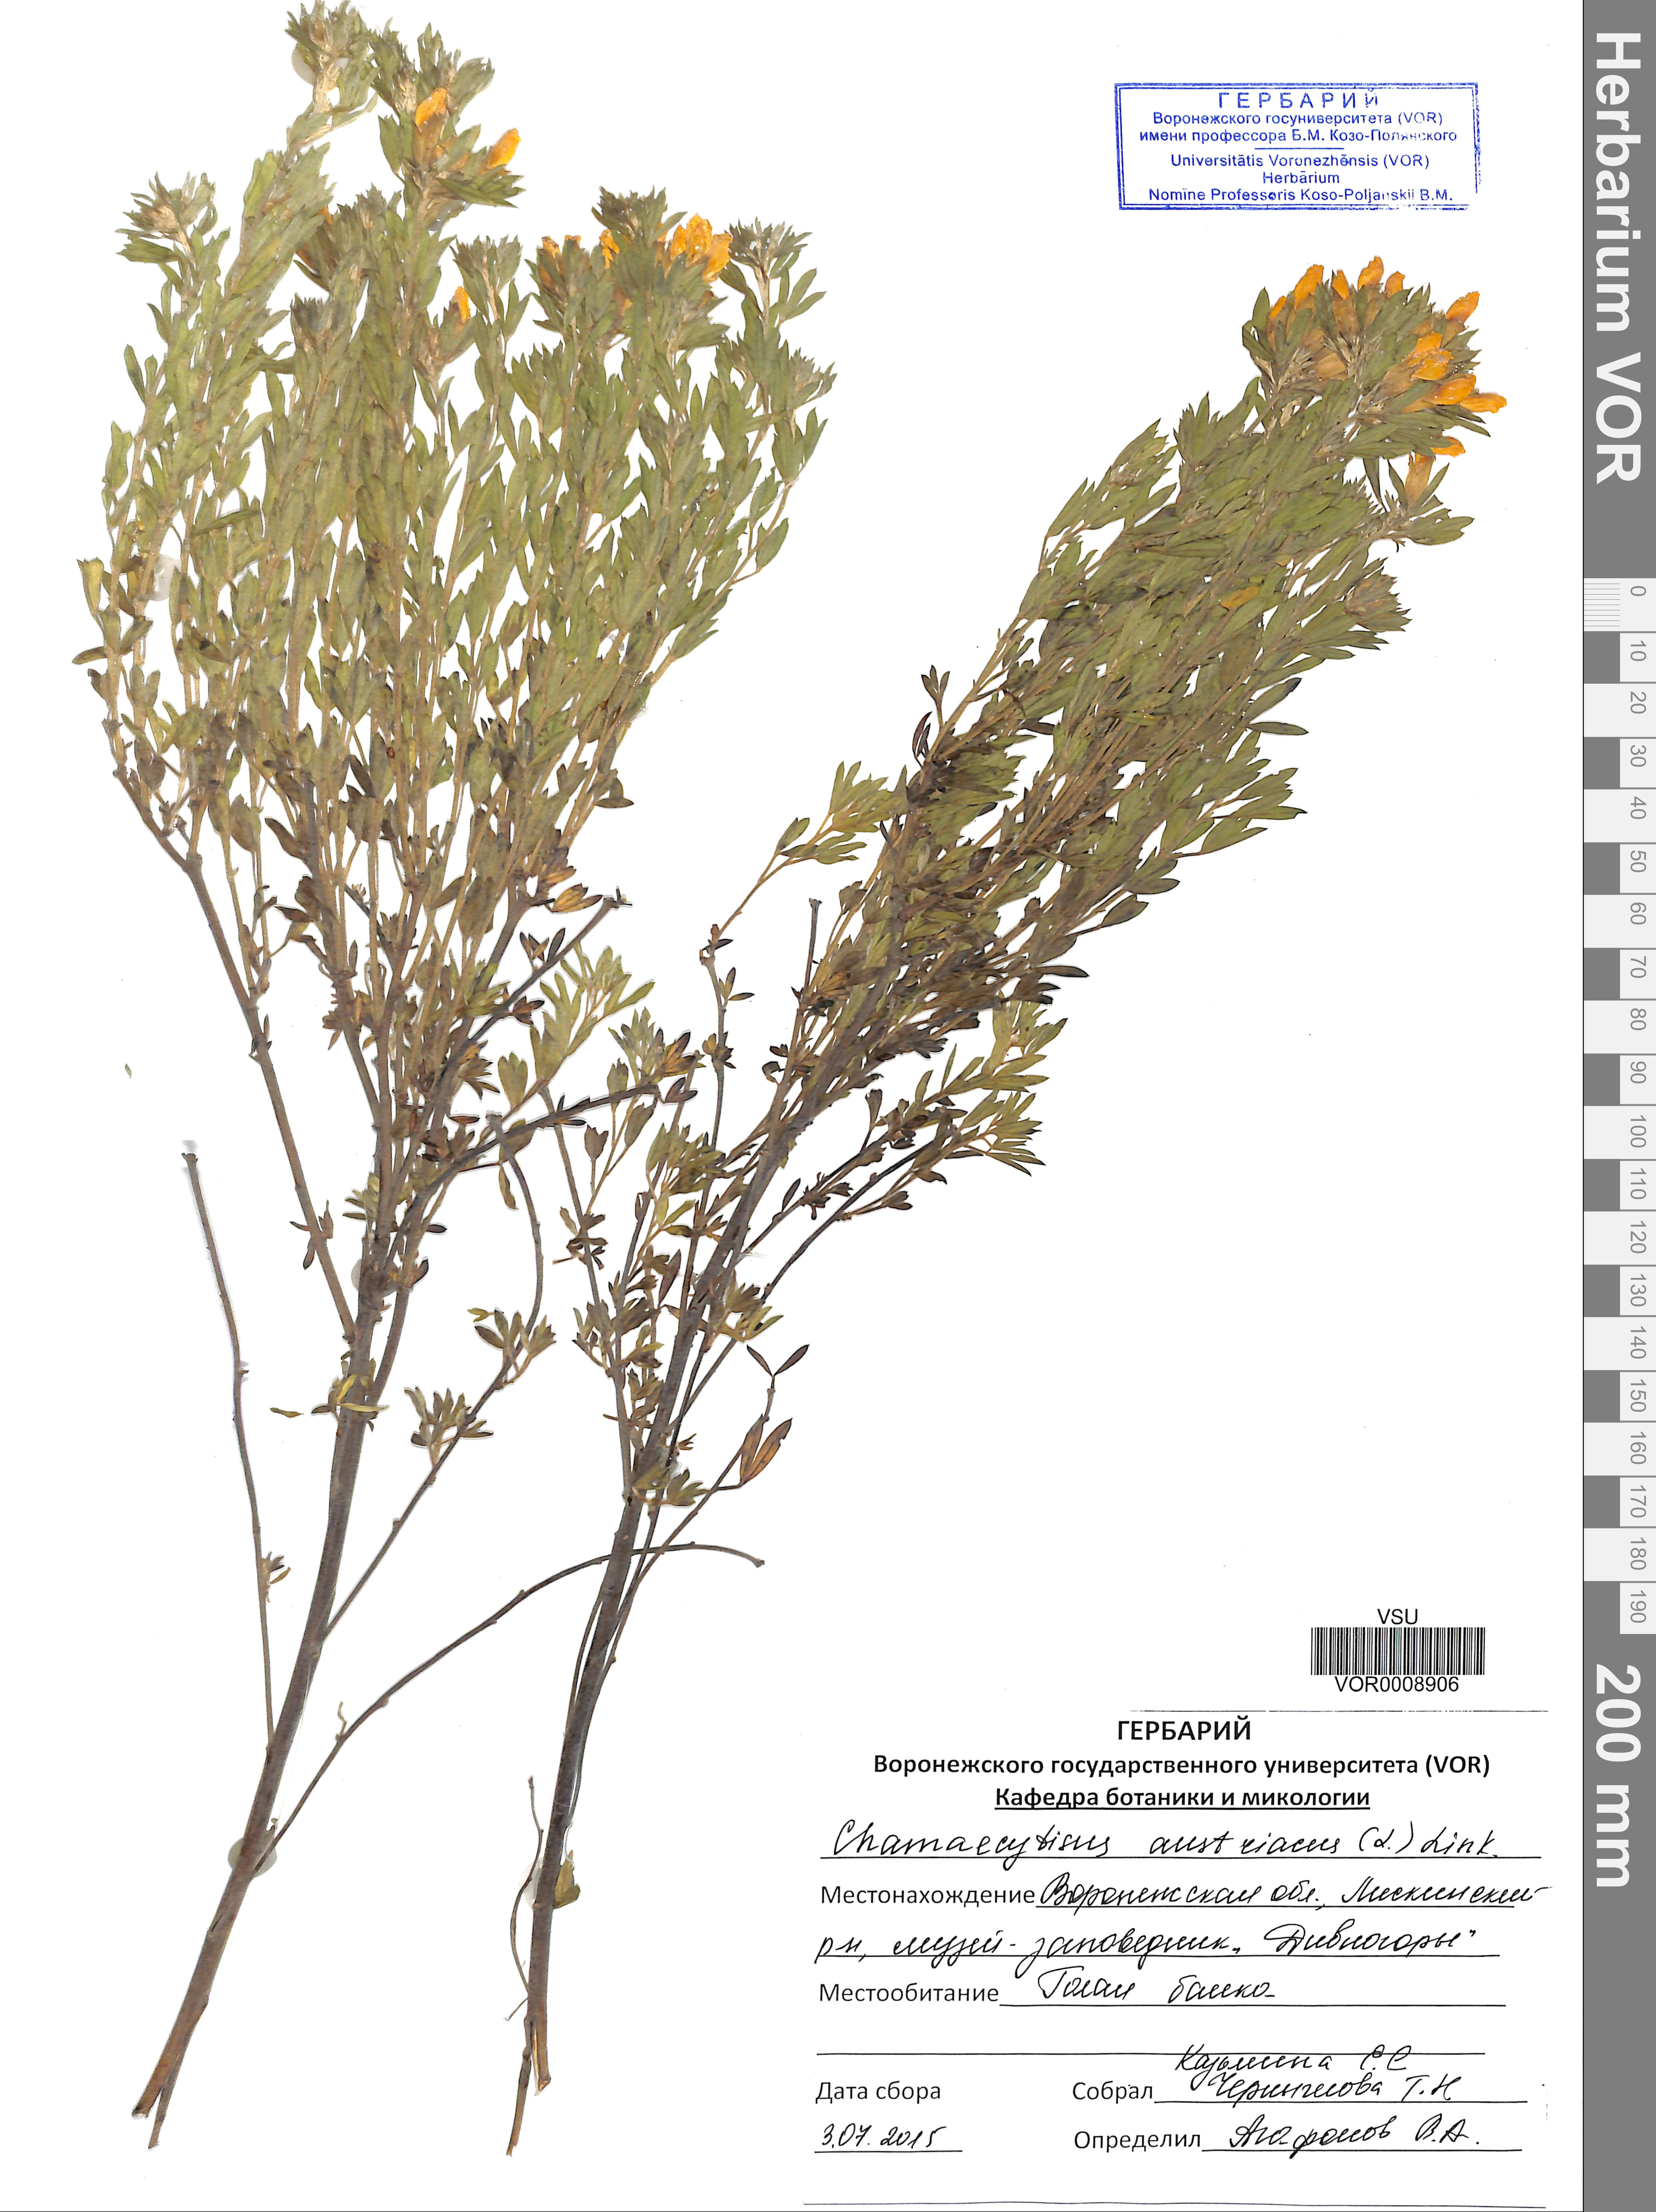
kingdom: Plantae
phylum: Tracheophyta
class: Magnoliopsida
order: Fabales
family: Fabaceae
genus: Chamaecytisus
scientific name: Chamaecytisus austriacus
